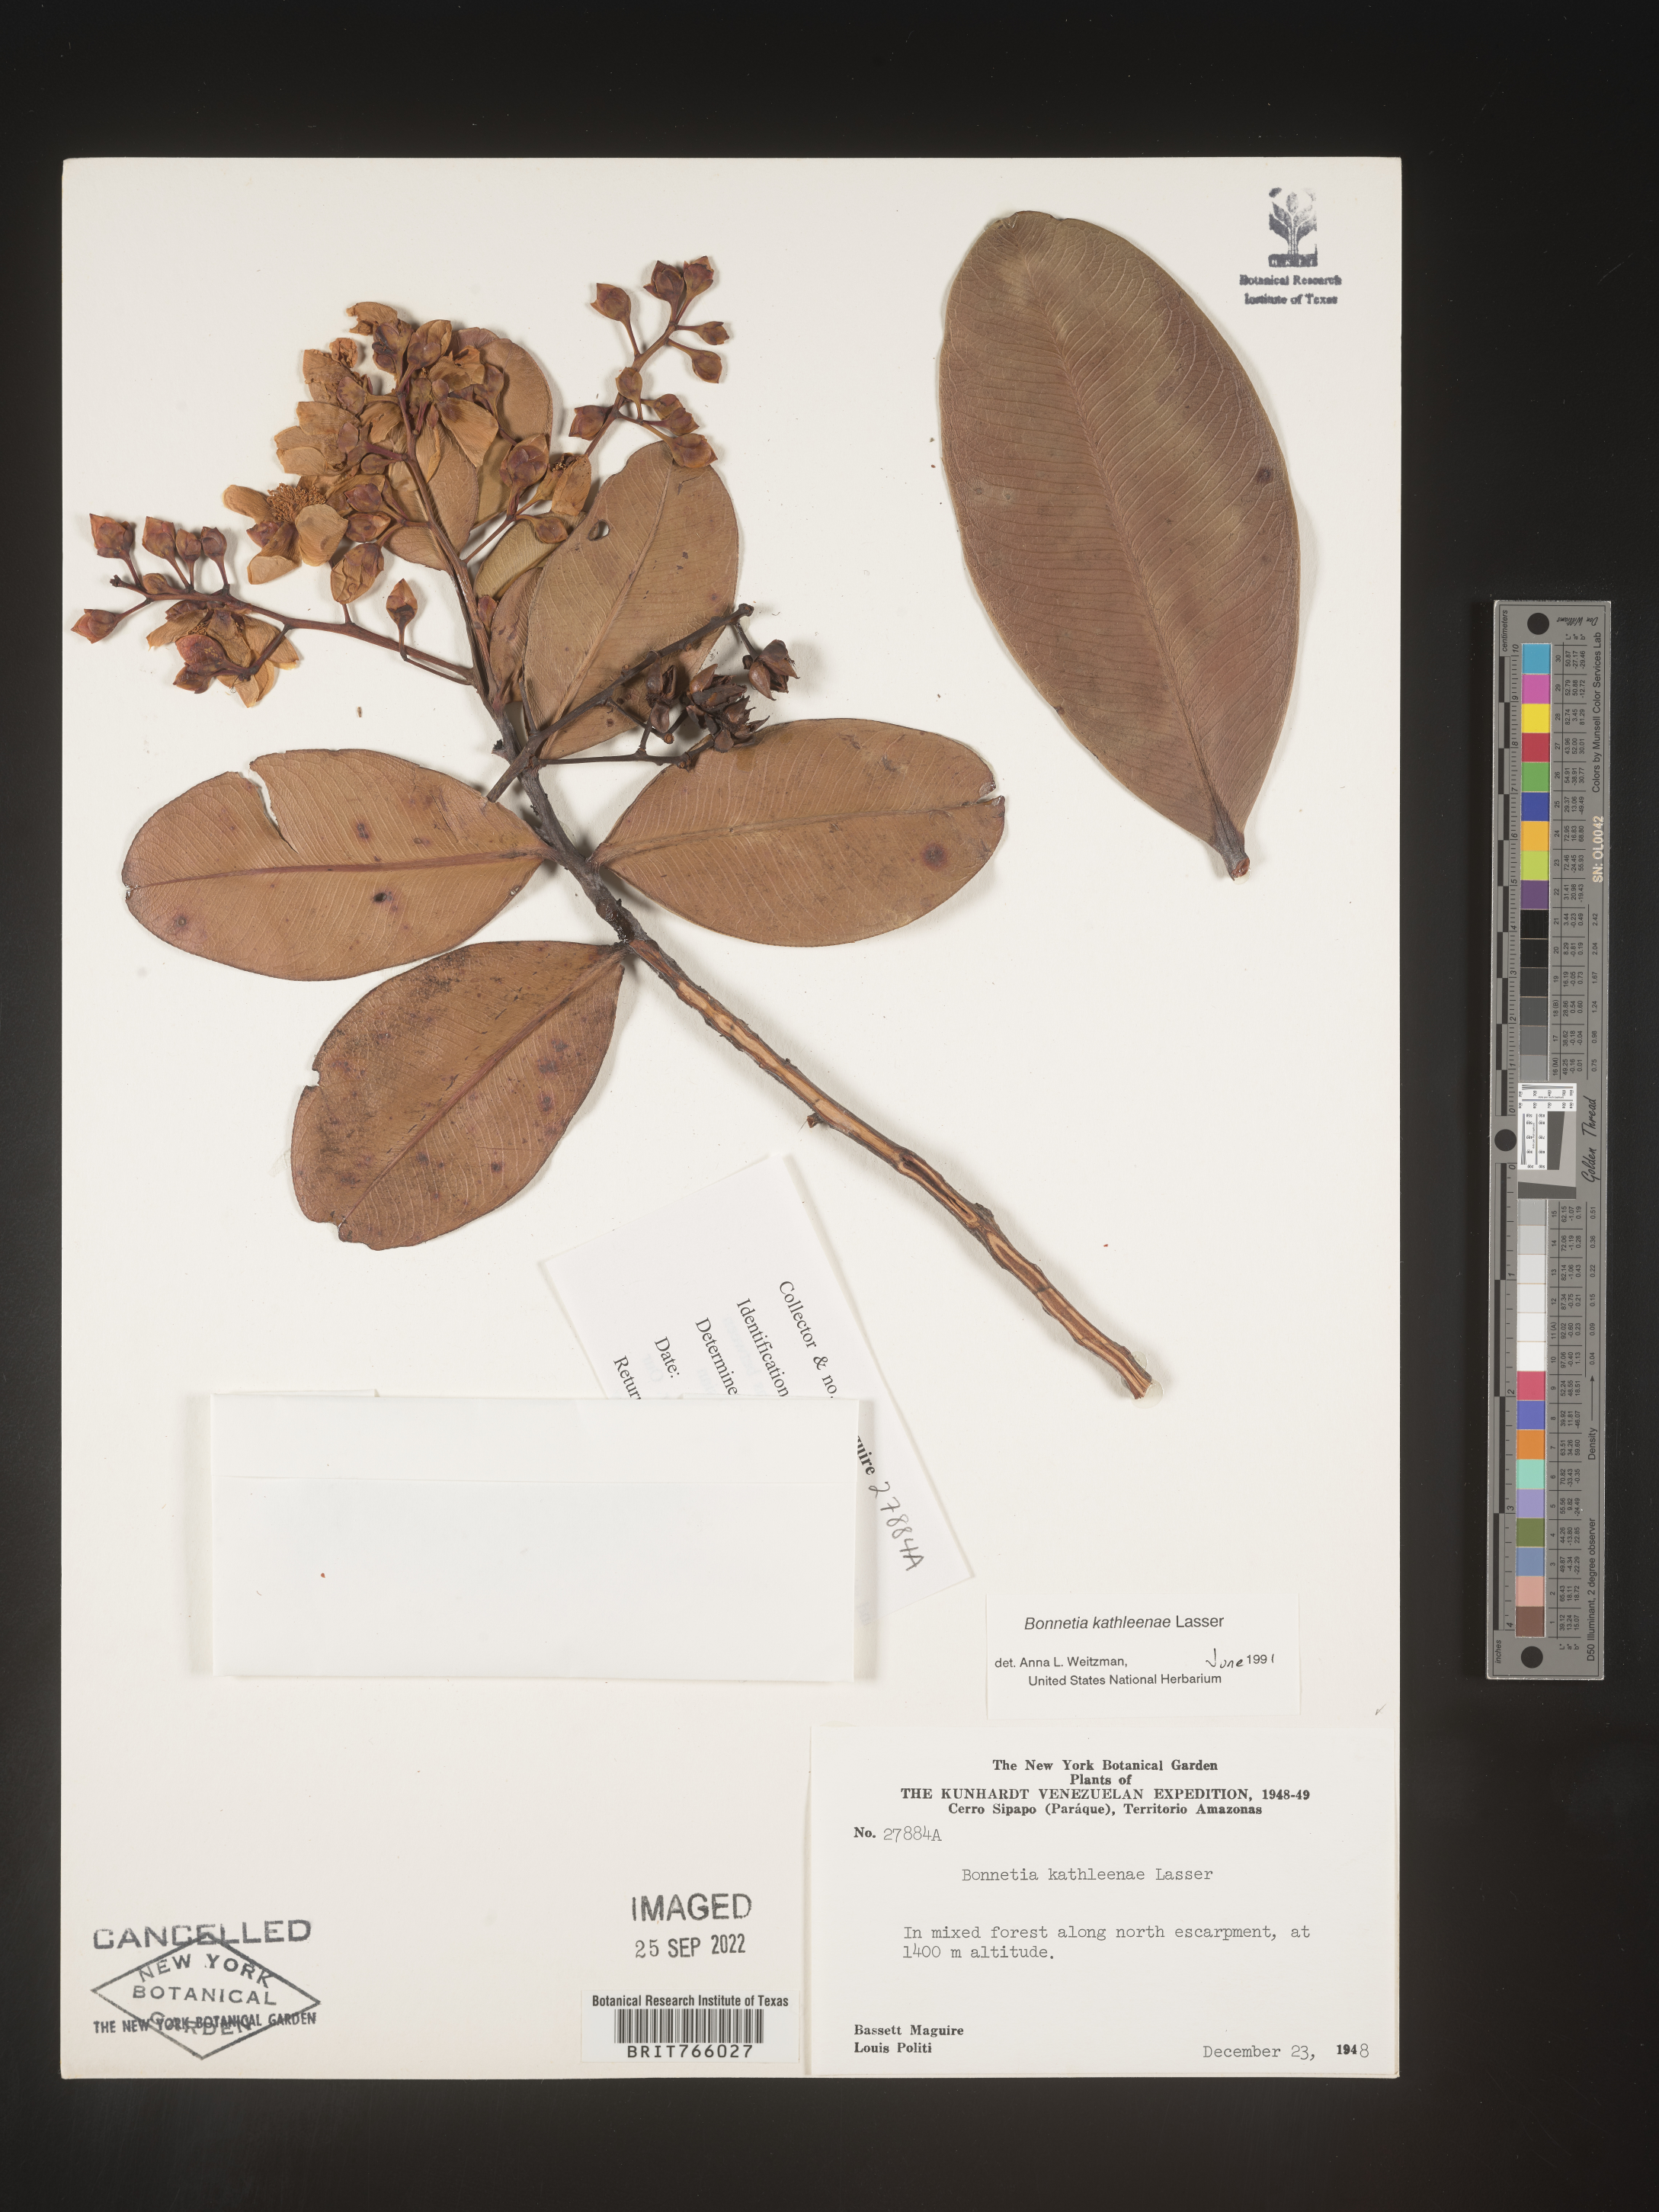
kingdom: Plantae
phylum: Tracheophyta
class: Magnoliopsida
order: Malpighiales
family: Bonnetiaceae
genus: Bonnetia
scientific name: Bonnetia
